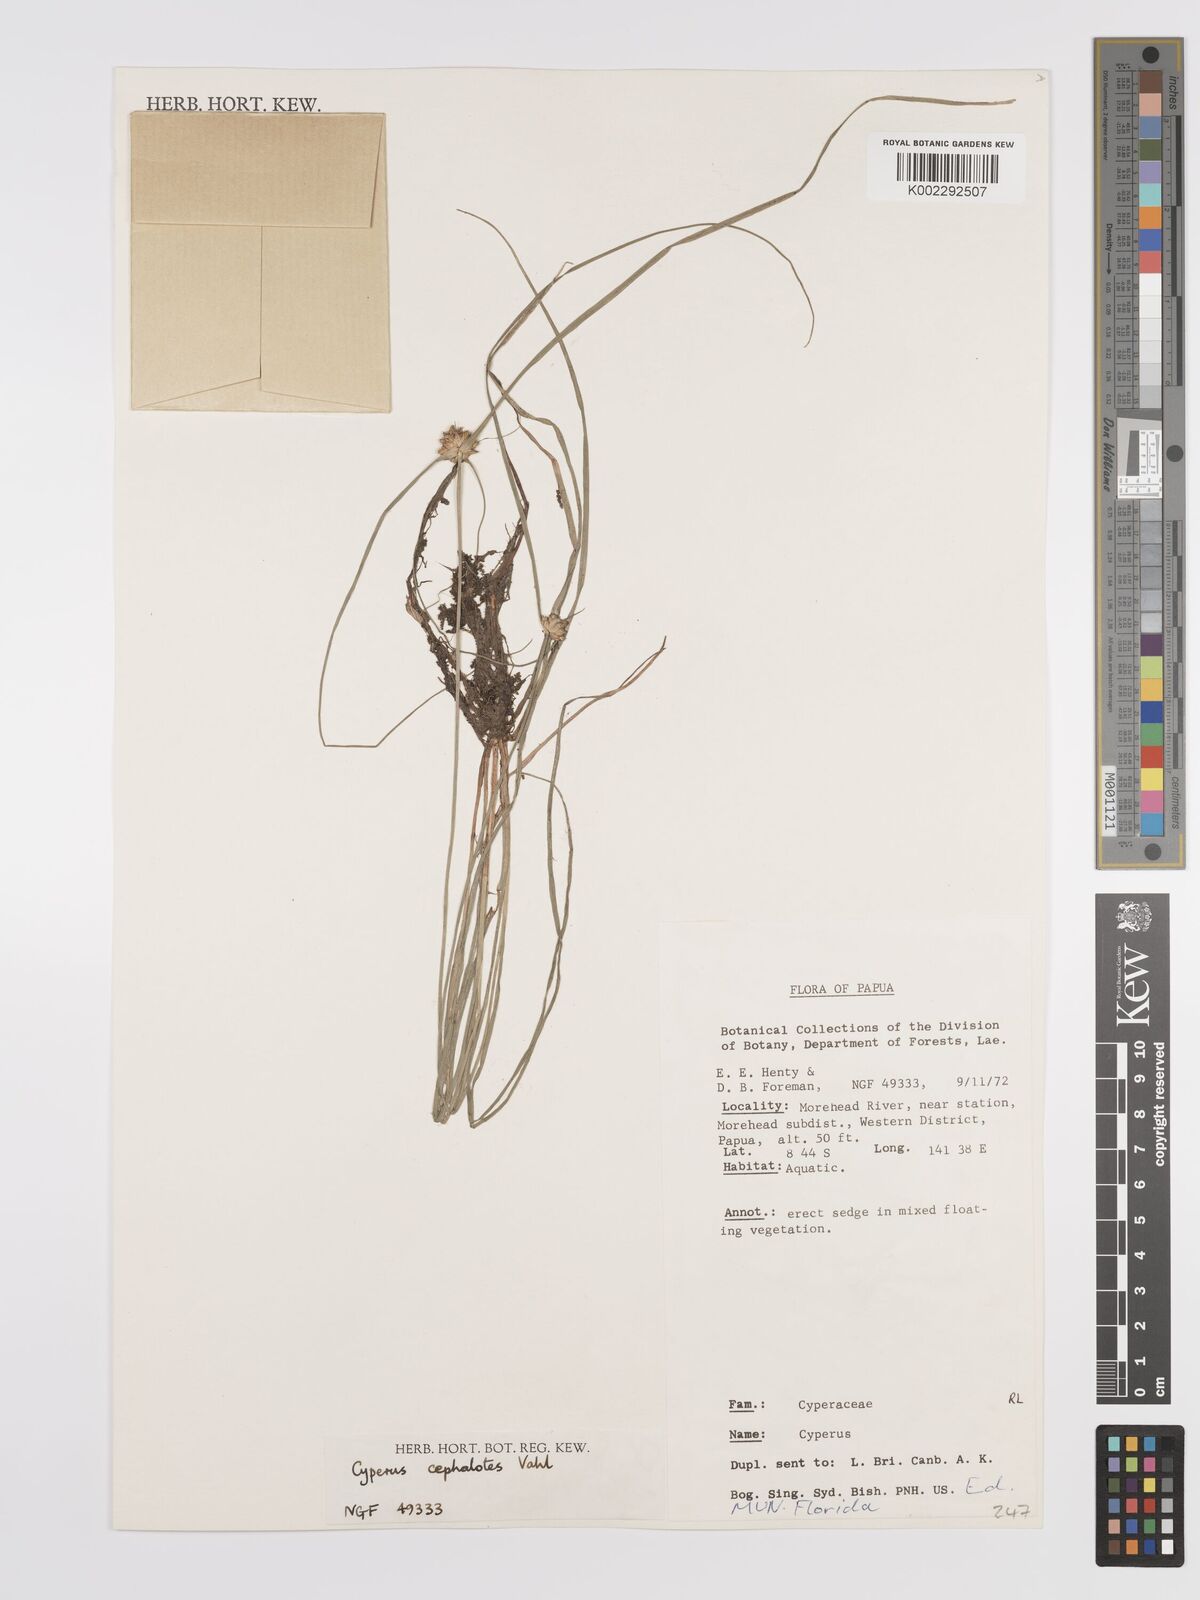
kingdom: Plantae
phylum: Tracheophyta
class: Liliopsida
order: Poales
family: Cyperaceae
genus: Cyperus
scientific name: Cyperus cephalotes
